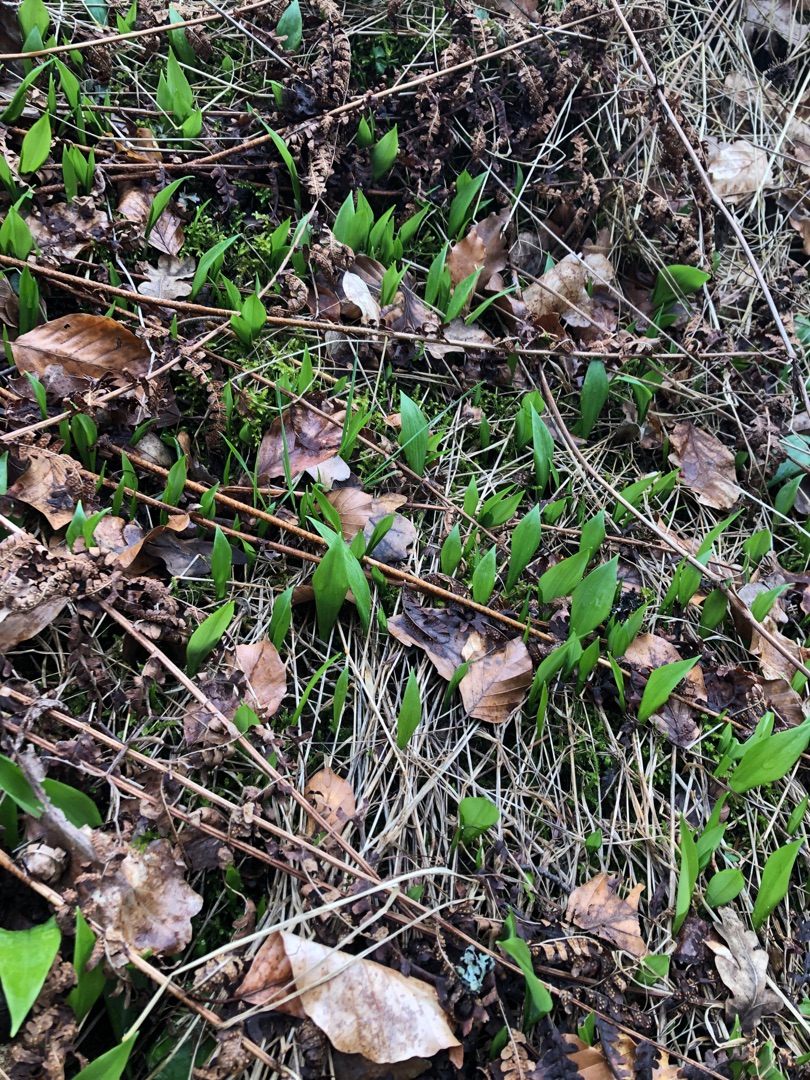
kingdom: Plantae
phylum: Tracheophyta
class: Liliopsida
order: Asparagales
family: Amaryllidaceae
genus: Allium
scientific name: Allium ursinum
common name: Rams-løg
